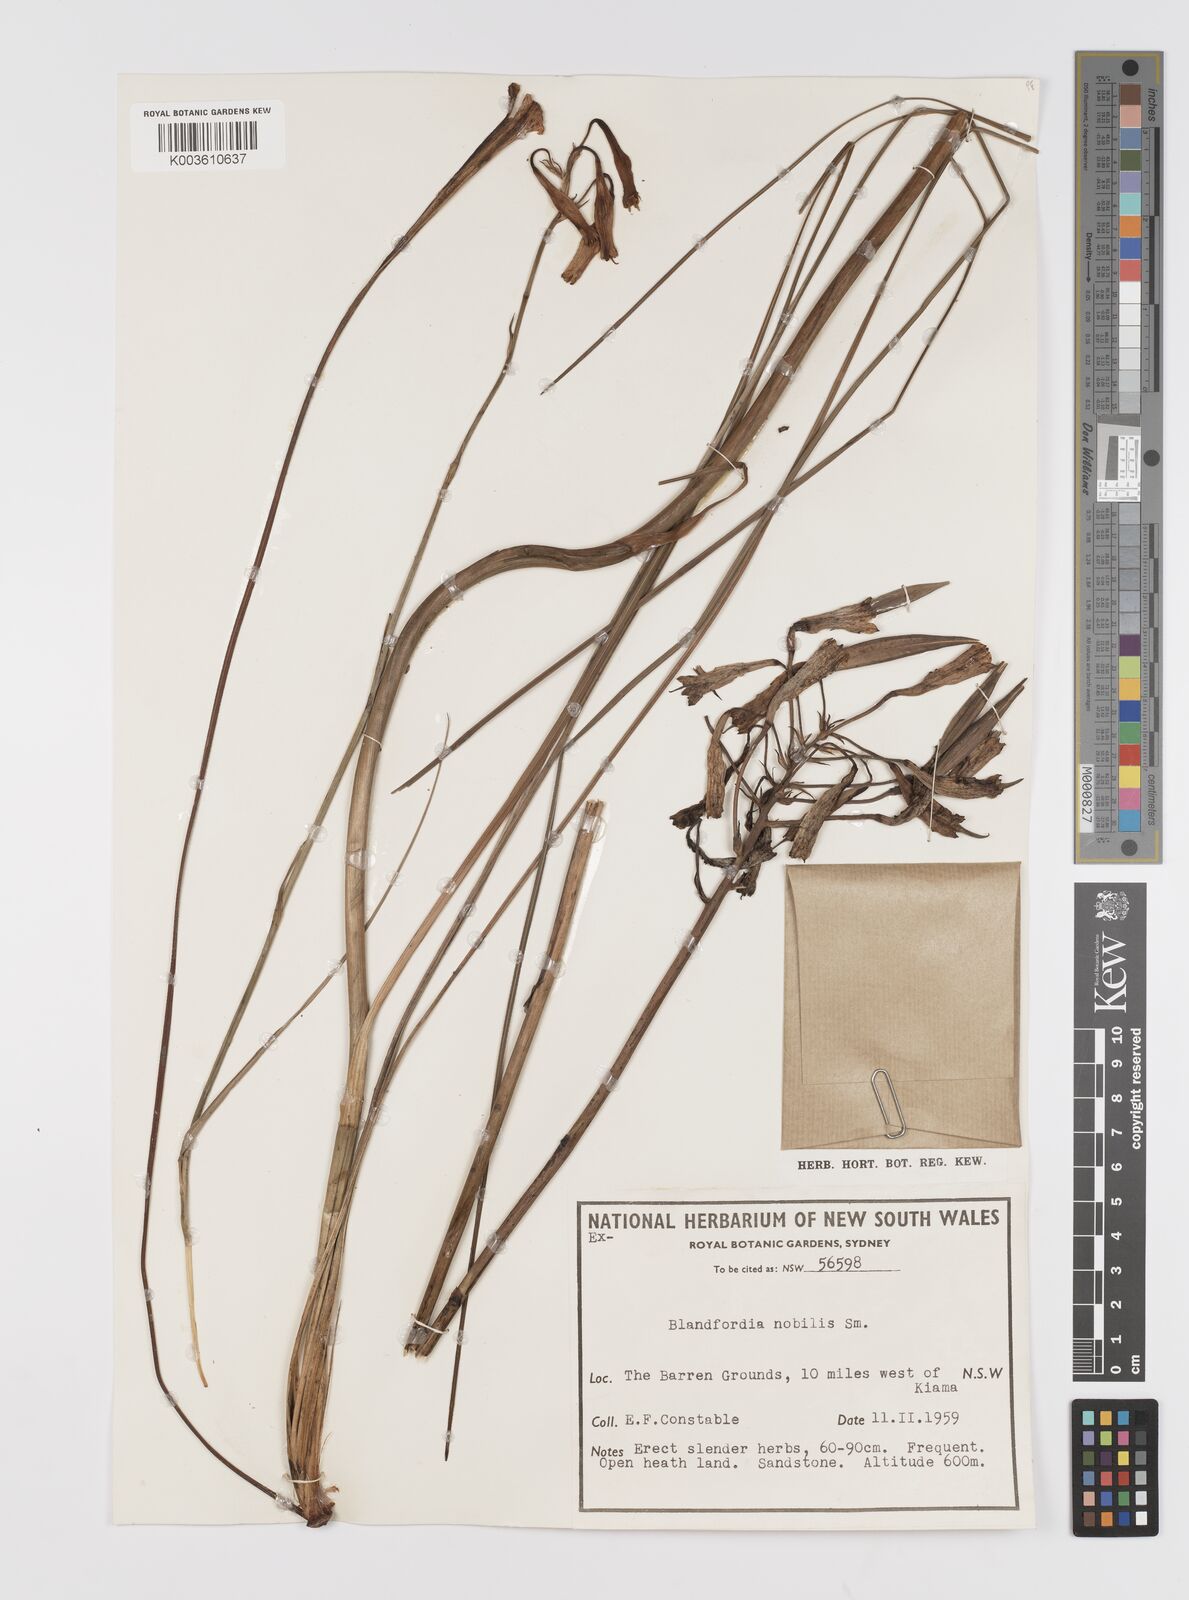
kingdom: Plantae
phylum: Tracheophyta
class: Liliopsida
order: Asparagales
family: Blandfordiaceae
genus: Blandfordia
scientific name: Blandfordia nobilis
